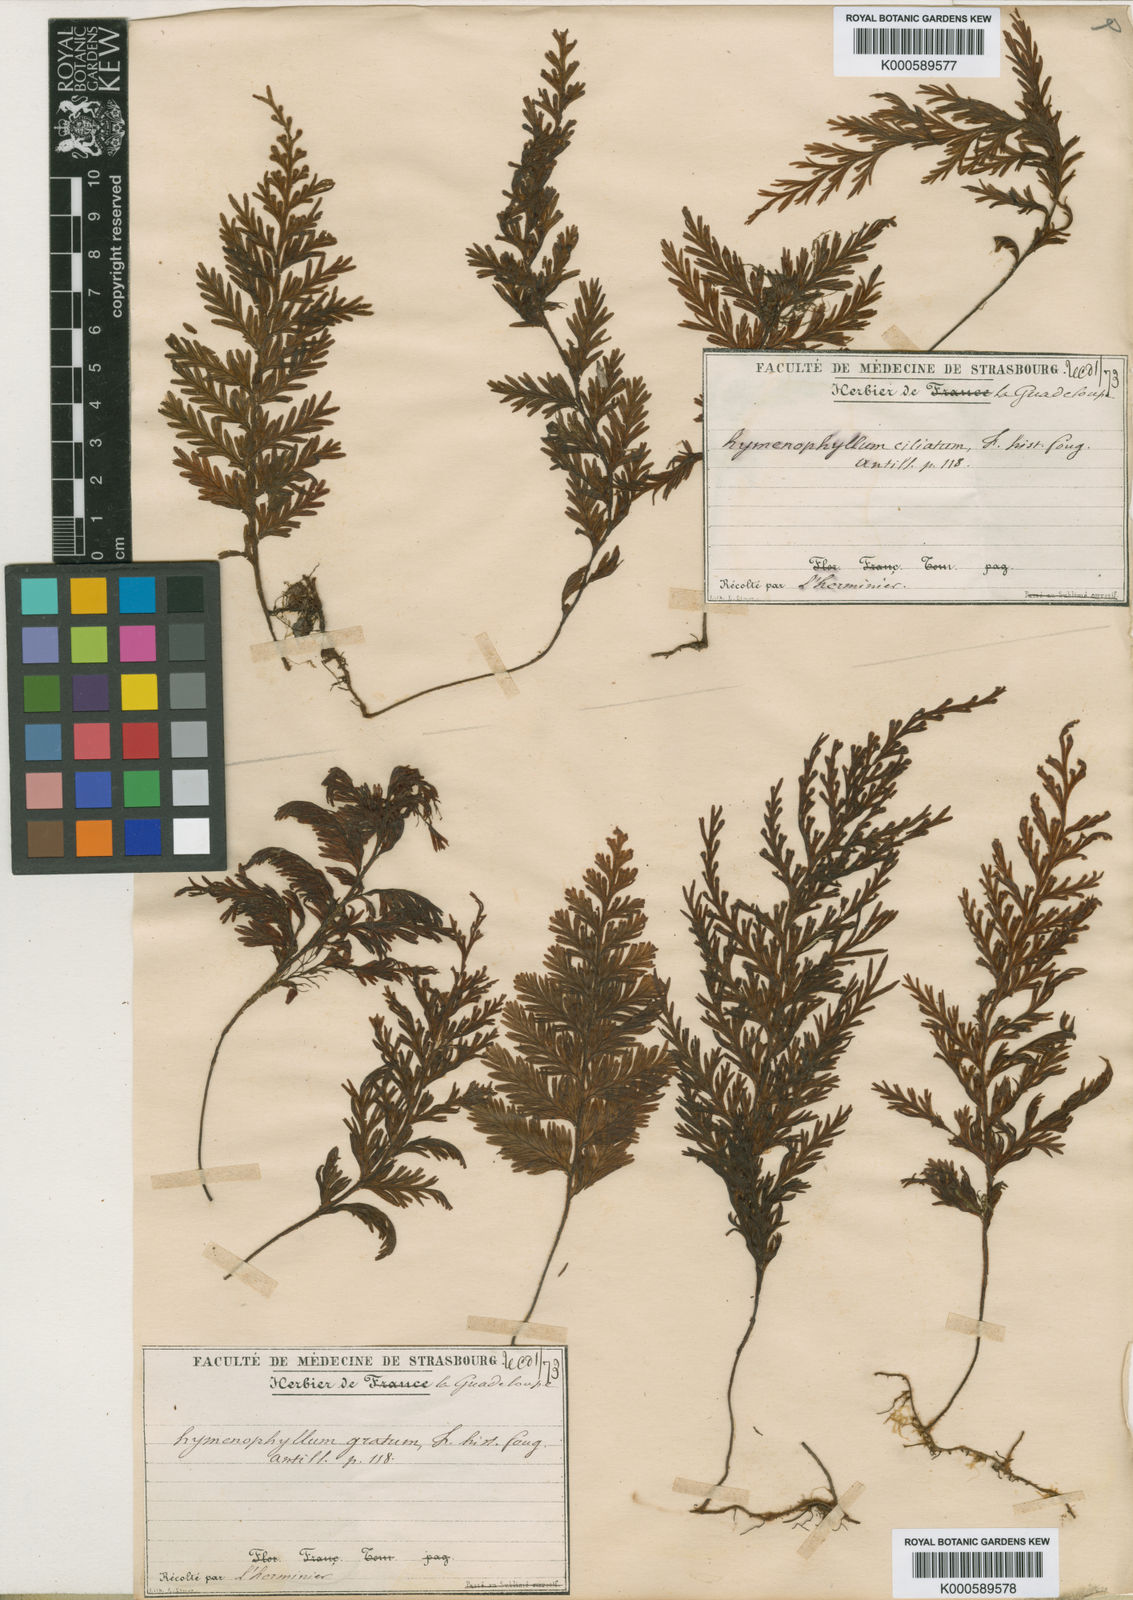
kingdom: Plantae
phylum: Tracheophyta
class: Polypodiopsida
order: Hymenophyllales
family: Hymenophyllaceae
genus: Hymenophyllum
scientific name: Hymenophyllum hirsutum
